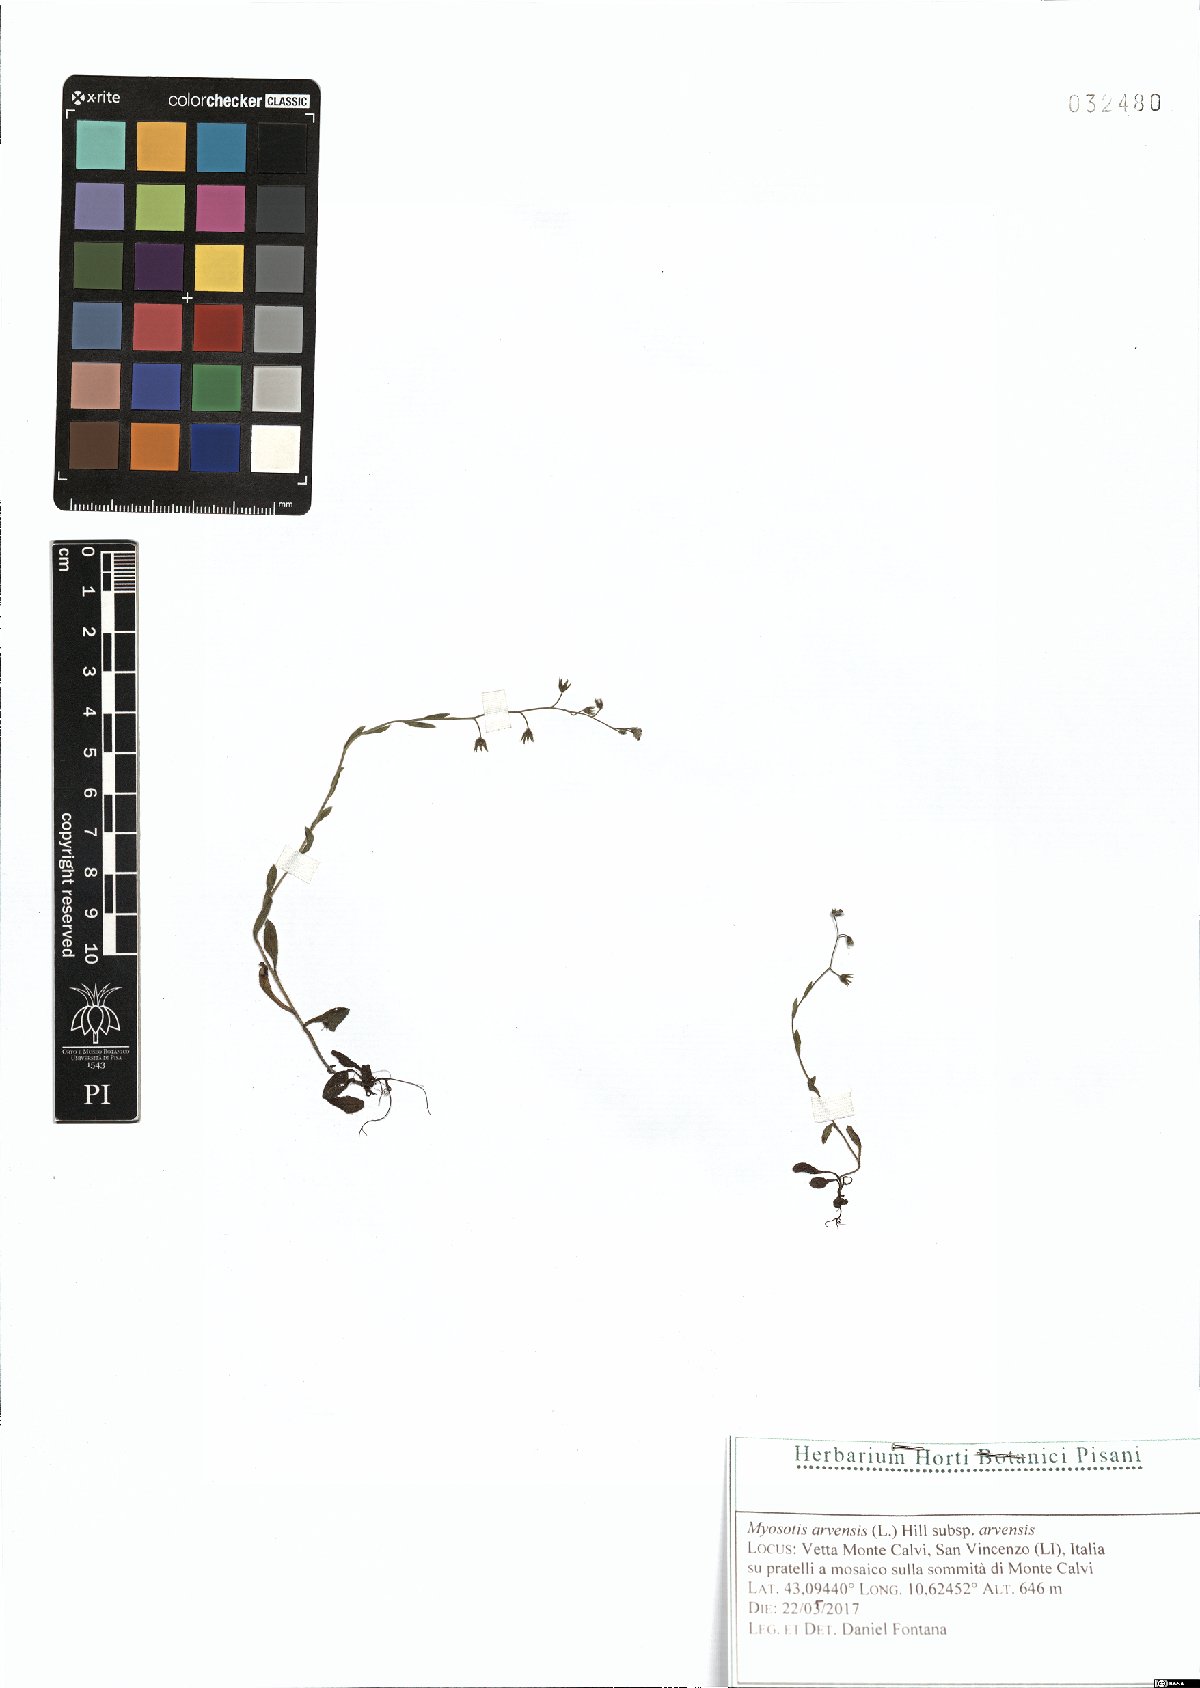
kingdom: Plantae
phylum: Tracheophyta
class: Magnoliopsida
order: Boraginales
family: Boraginaceae
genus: Myosotis
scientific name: Myosotis arvensis
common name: Field forget-me-not
